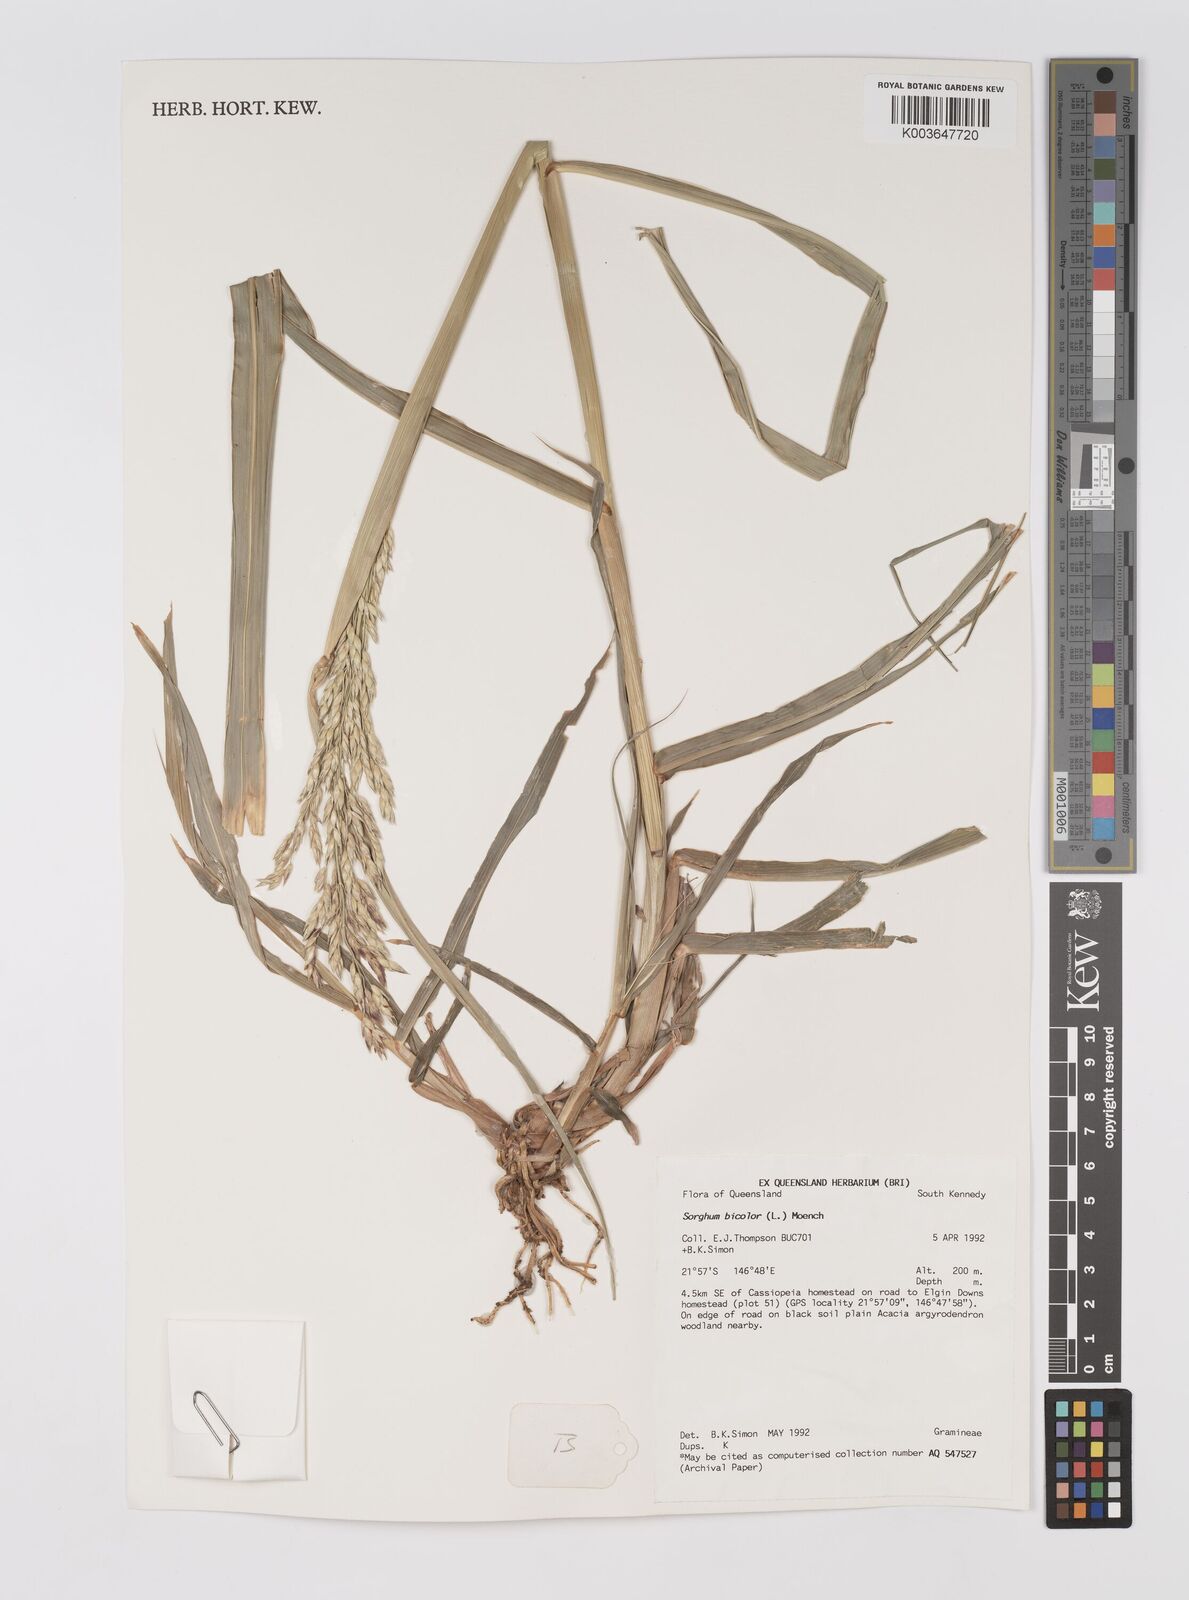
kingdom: Plantae
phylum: Tracheophyta
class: Liliopsida
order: Poales
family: Poaceae
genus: Sorghum
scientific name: Sorghum drummondii
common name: Sudangrass
